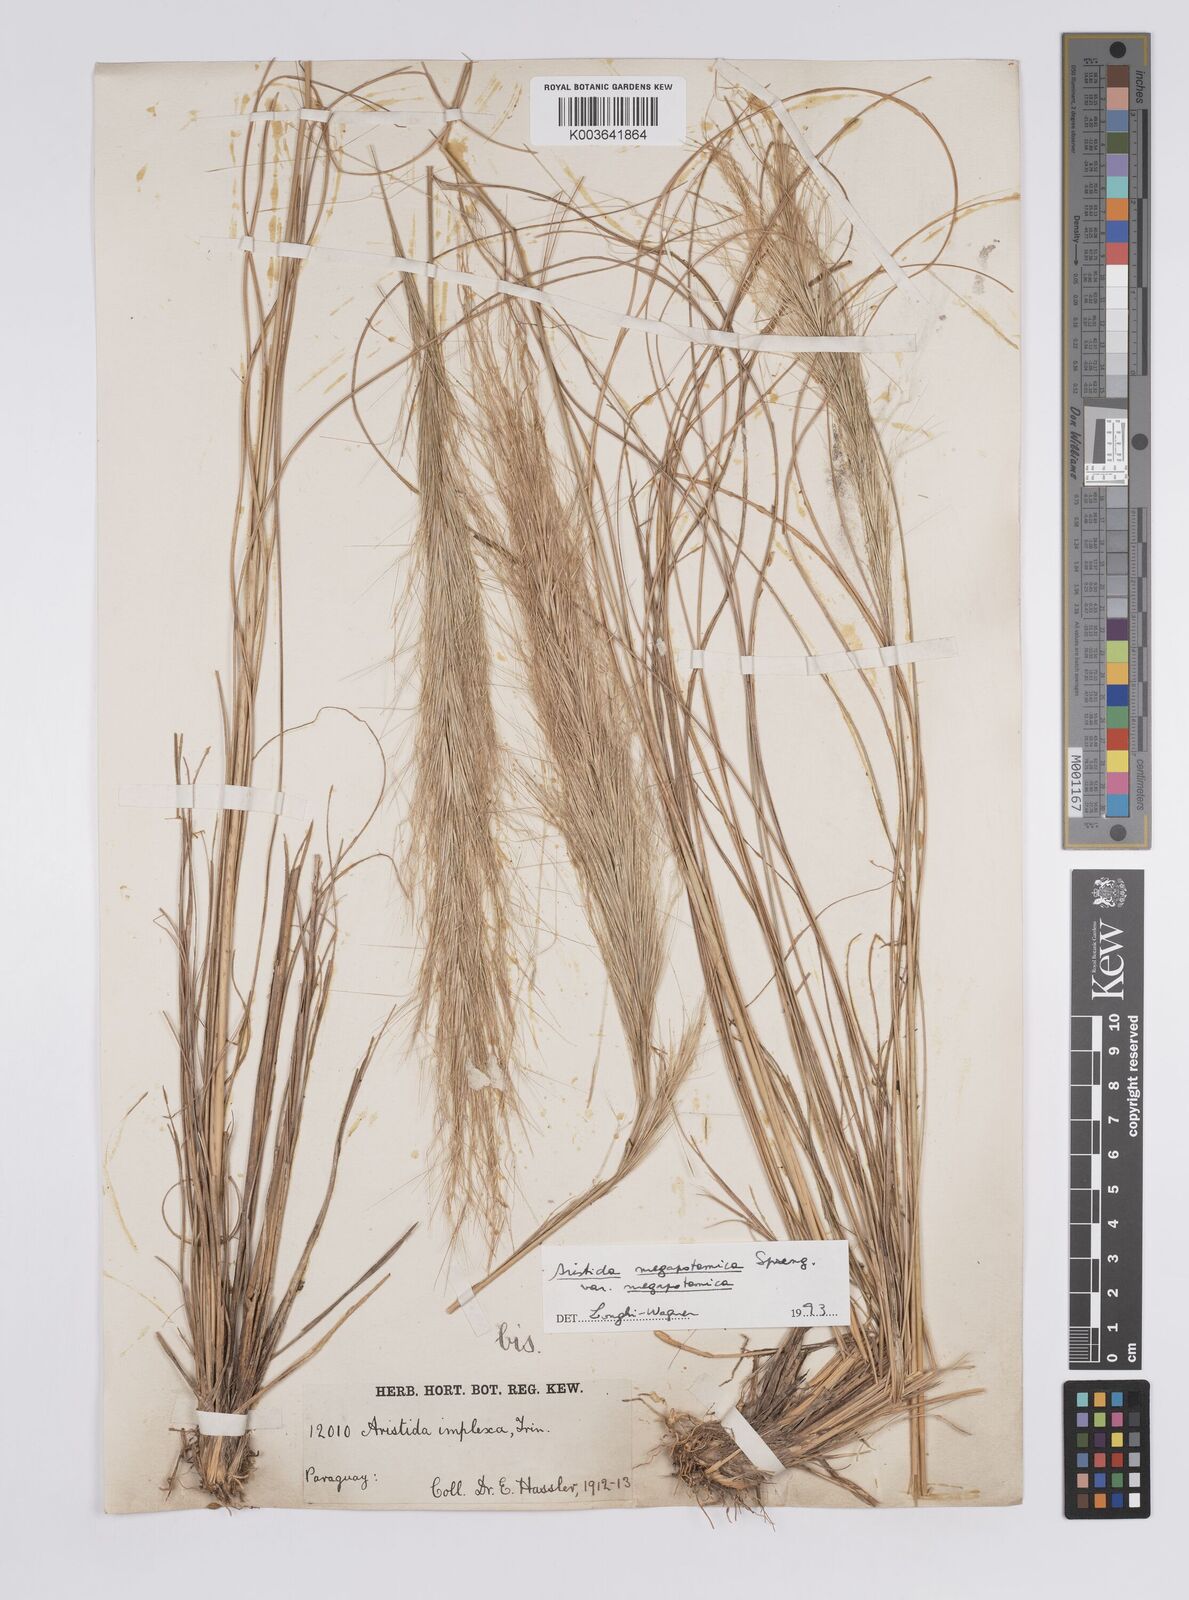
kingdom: Plantae
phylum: Tracheophyta
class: Liliopsida
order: Poales
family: Poaceae
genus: Aristida
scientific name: Aristida megapotamica
